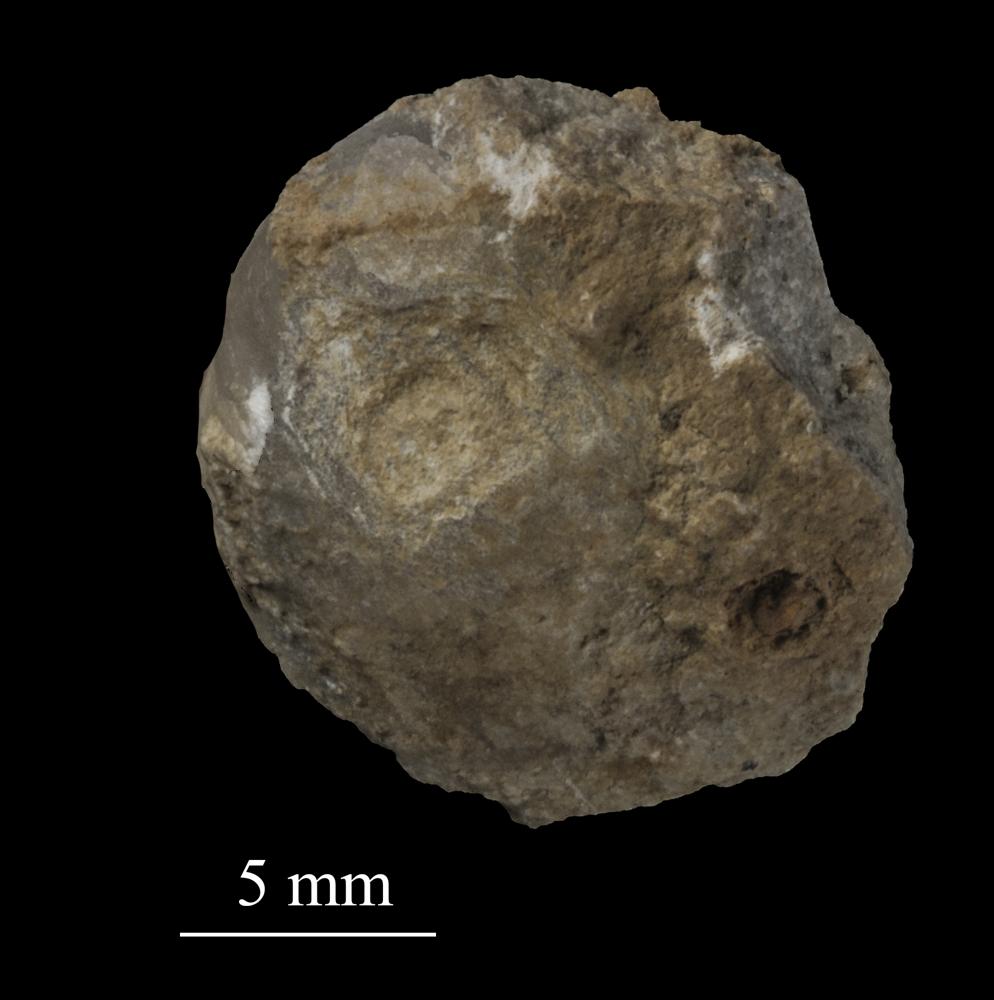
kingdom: Animalia
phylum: Brachiopoda
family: Strophomenidae
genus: Bekkerina
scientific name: Bekkerina Rafinesquina dorsata
